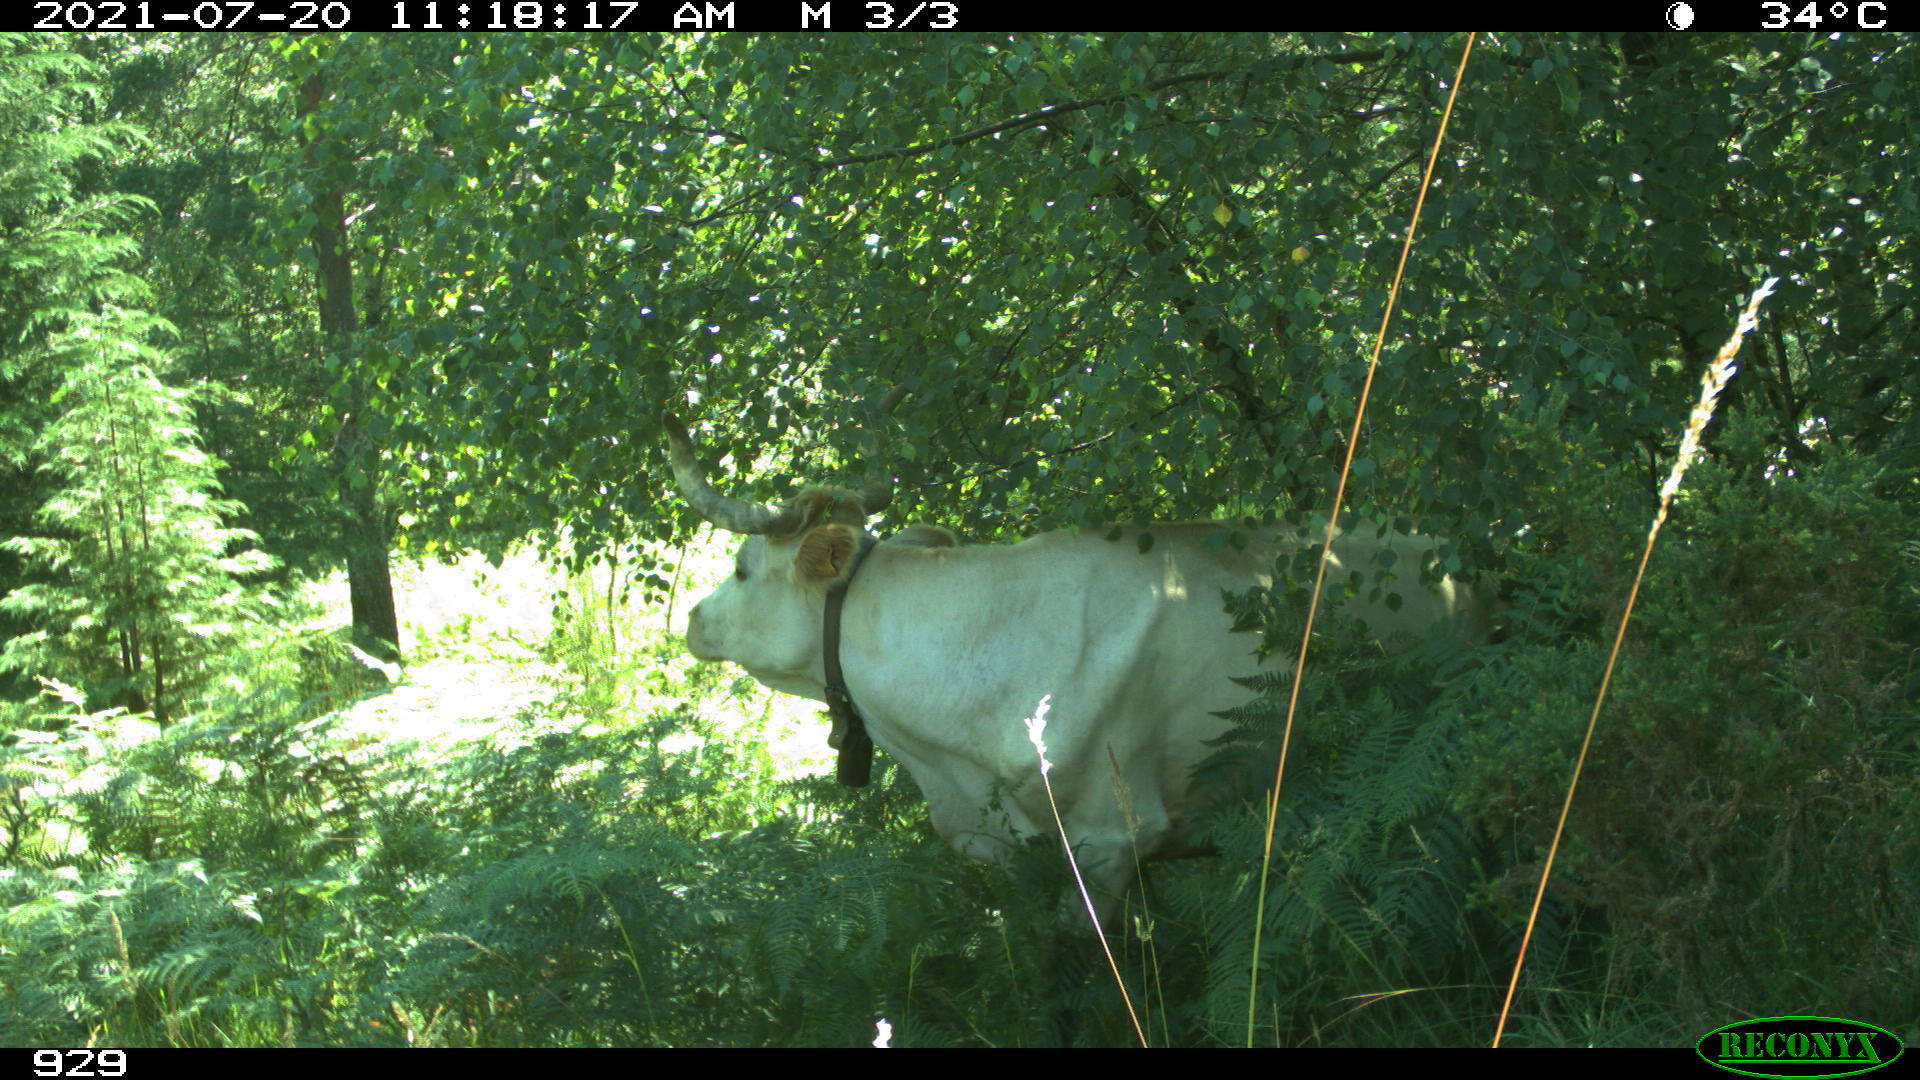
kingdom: Animalia
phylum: Chordata
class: Mammalia
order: Artiodactyla
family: Bovidae
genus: Bos
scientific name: Bos taurus
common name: Domesticated cattle
